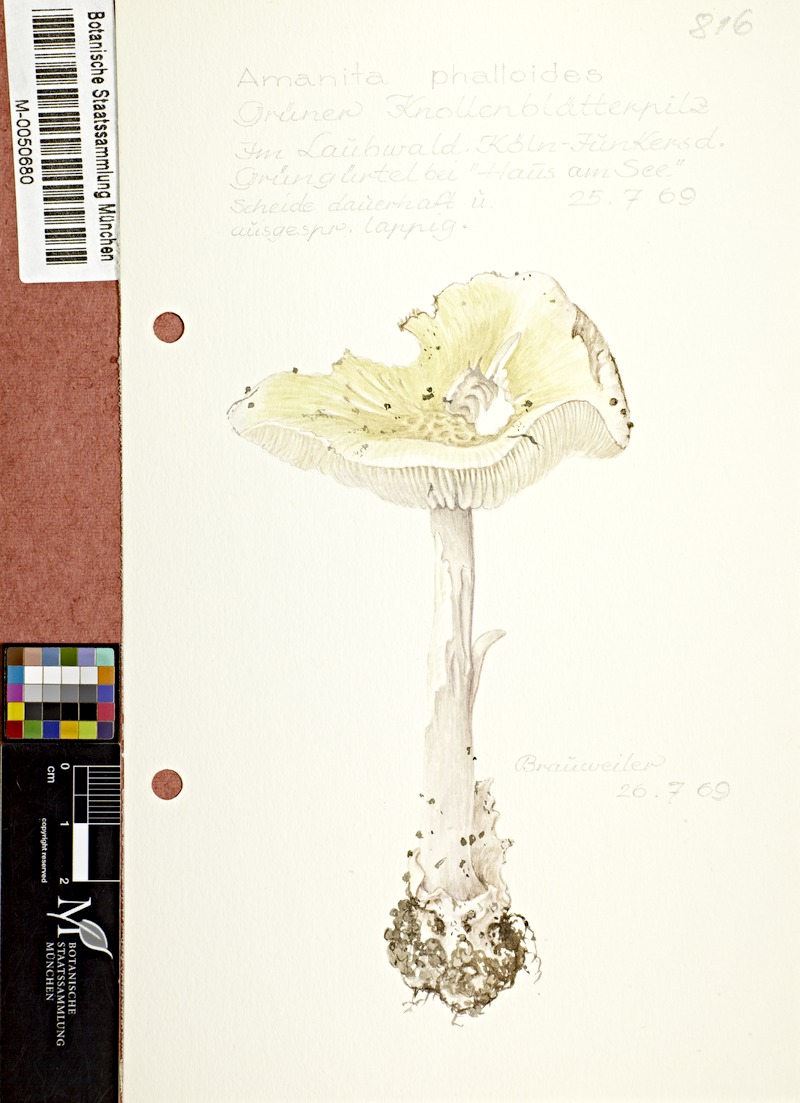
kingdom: Fungi
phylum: Basidiomycota
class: Agaricomycetes
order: Agaricales
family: Amanitaceae
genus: Amanita
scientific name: Amanita phalloides
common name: Death cap
